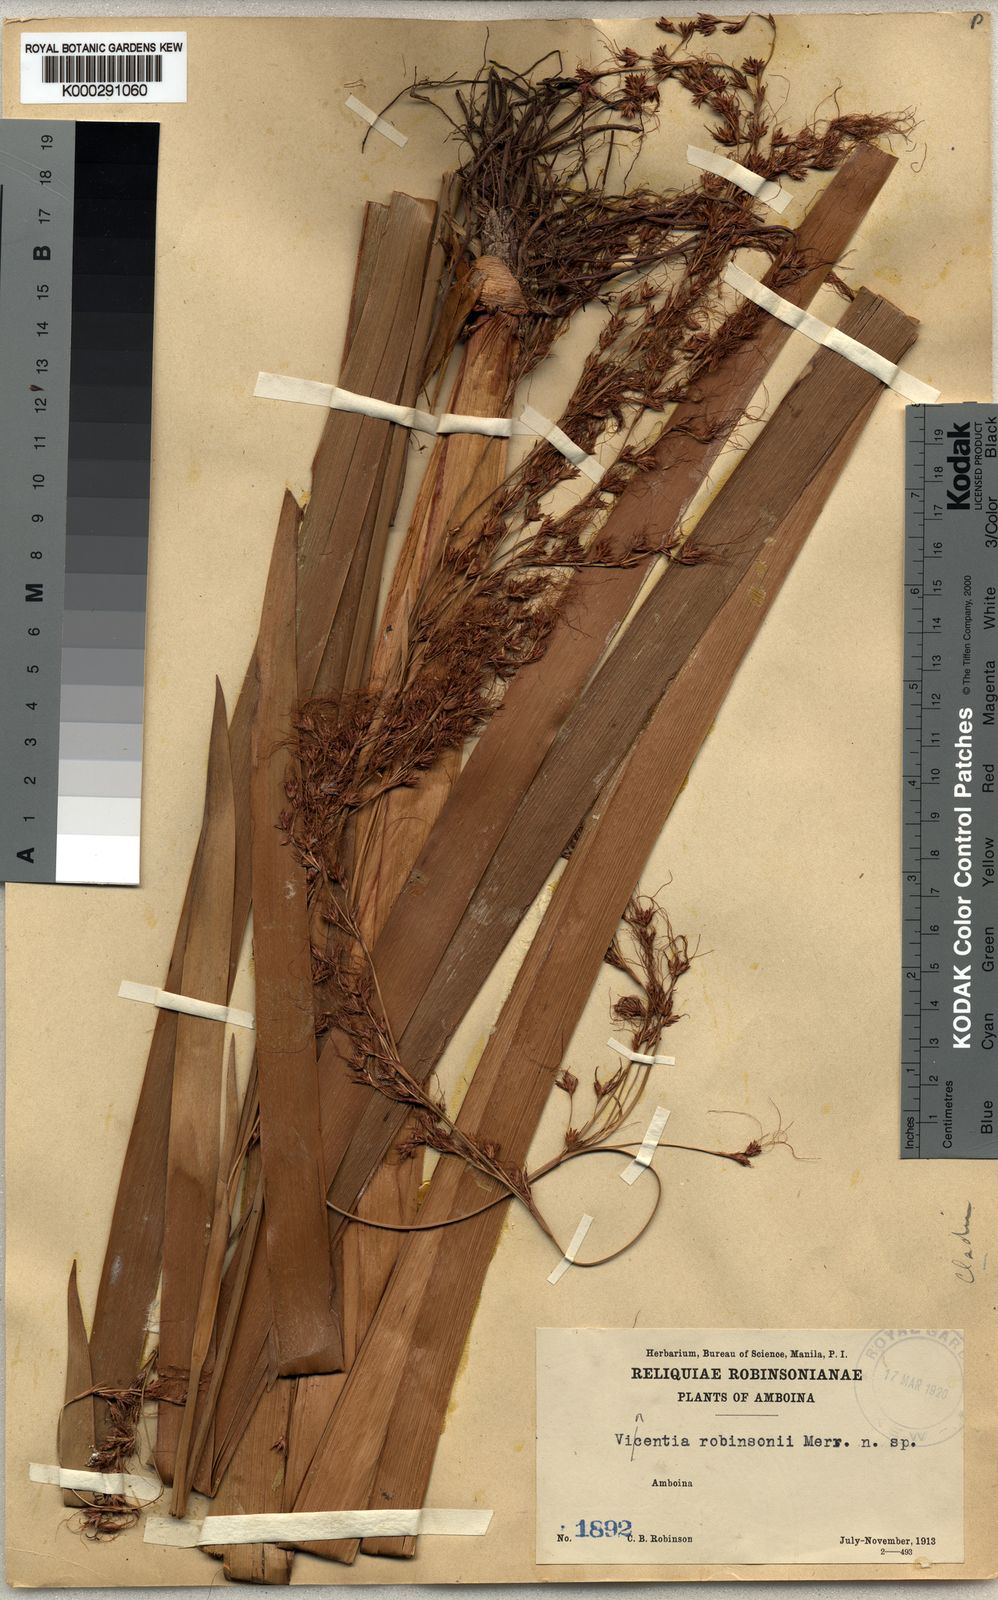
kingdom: Plantae
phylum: Tracheophyta
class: Liliopsida
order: Poales
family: Cyperaceae
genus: Machaerina
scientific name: Machaerina sinclairii
